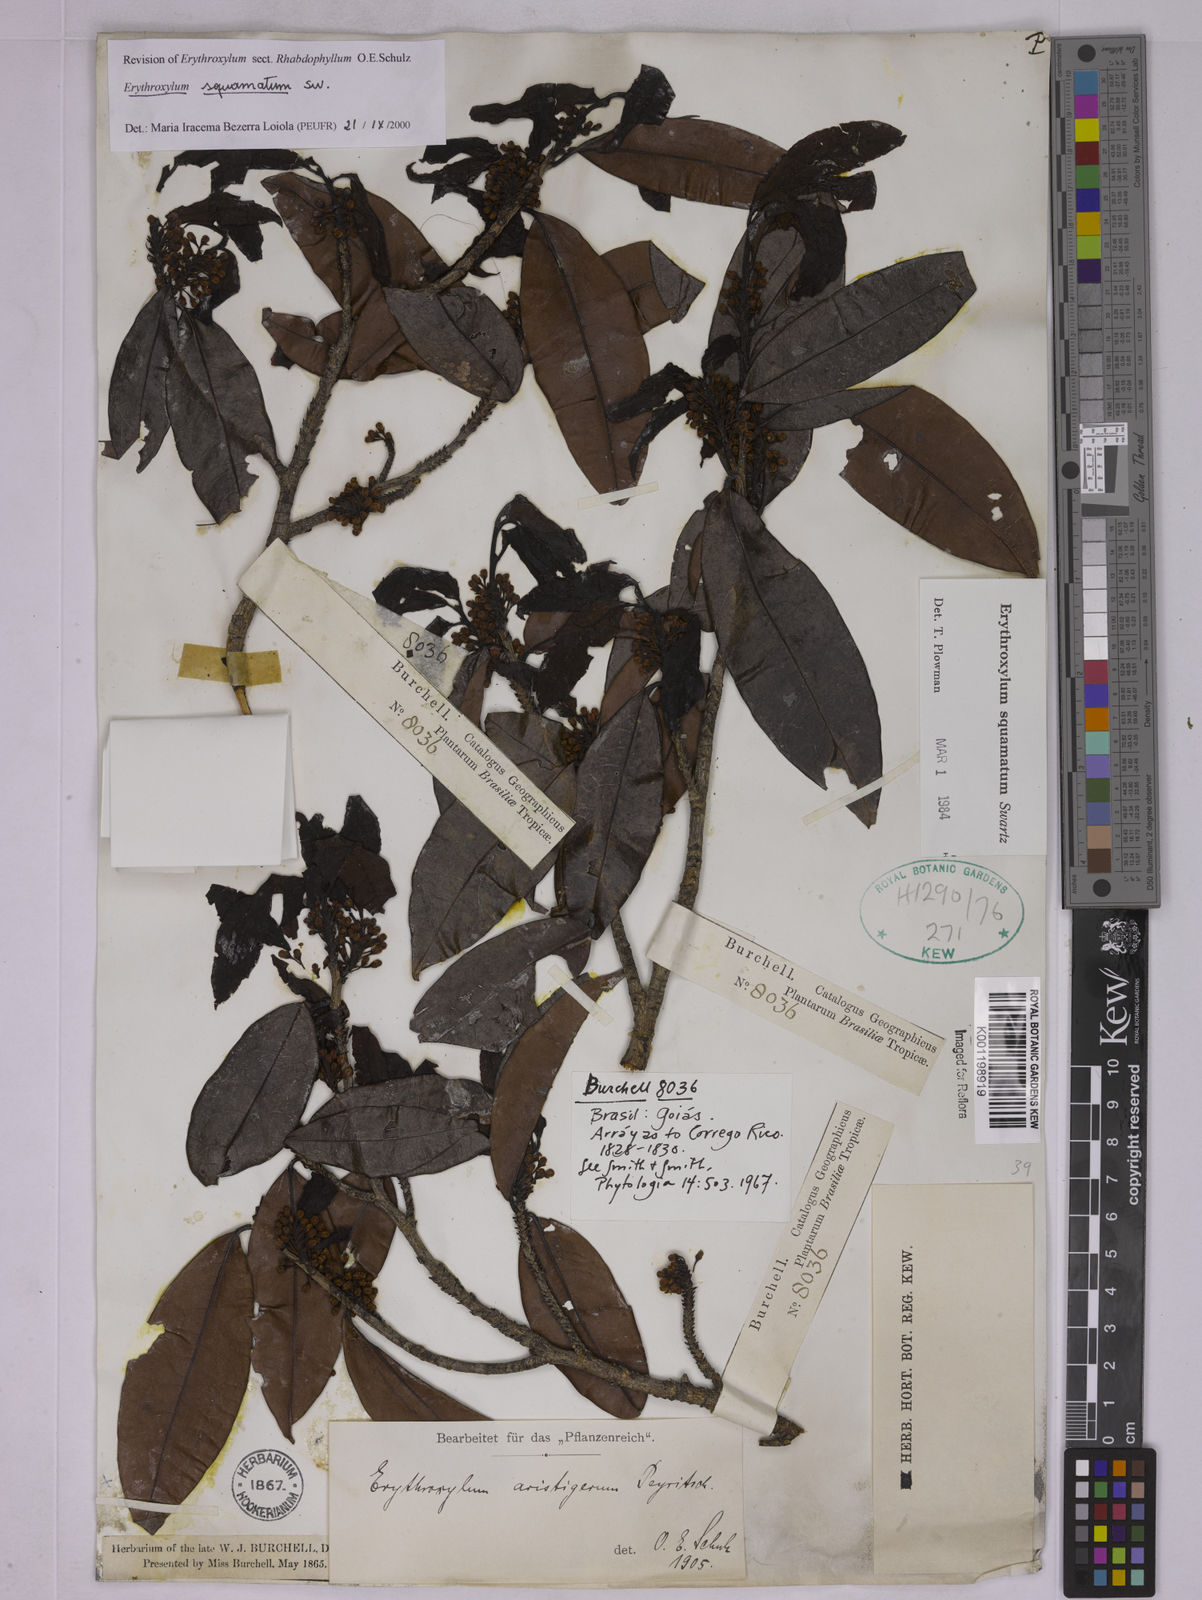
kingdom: Plantae
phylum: Tracheophyta
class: Magnoliopsida
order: Malpighiales
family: Erythroxylaceae
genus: Erythroxylum
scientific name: Erythroxylum squamatum
